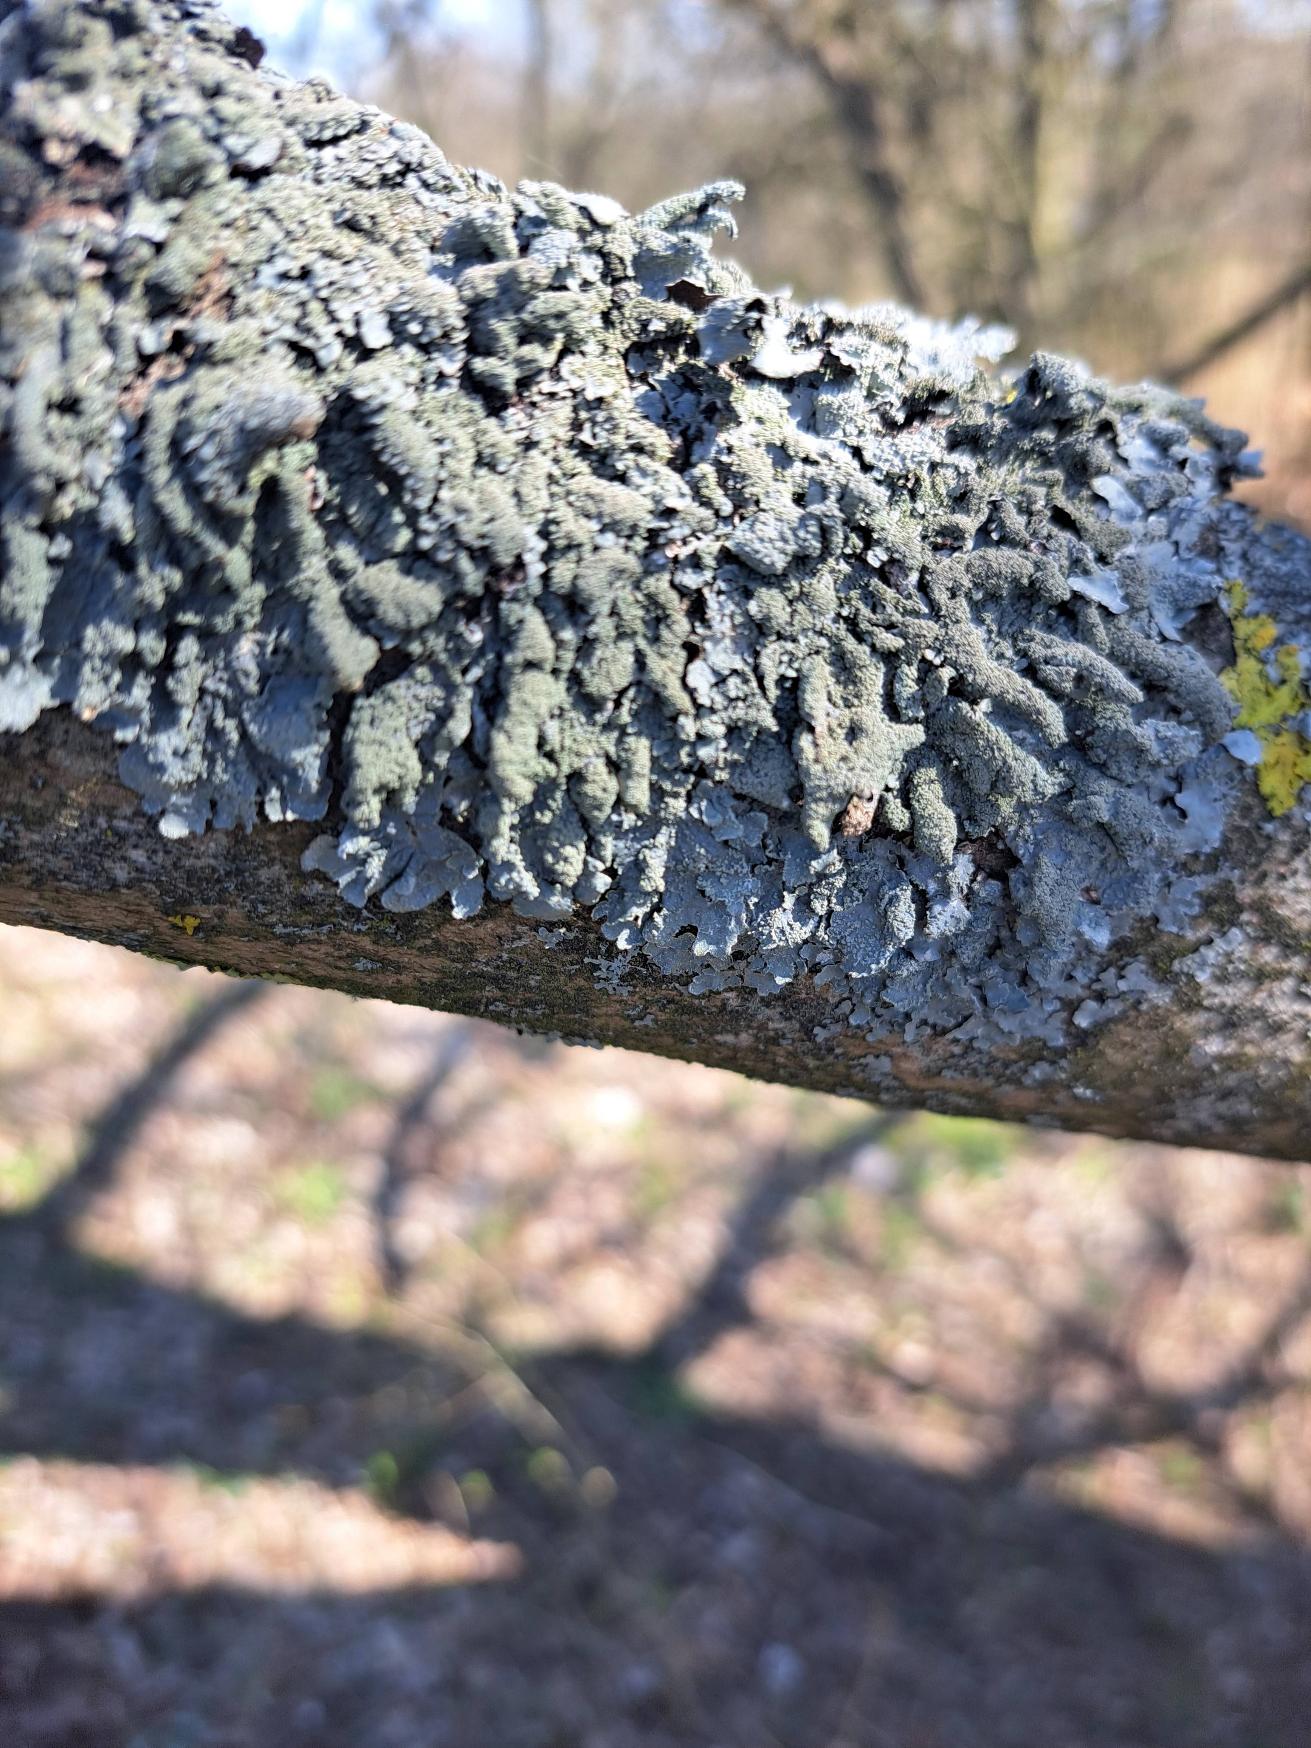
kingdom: Fungi
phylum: Ascomycota
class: Lecanoromycetes
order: Lecanorales
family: Parmeliaceae
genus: Parmelia
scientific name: Parmelia submontana
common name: Langlobet skållav
